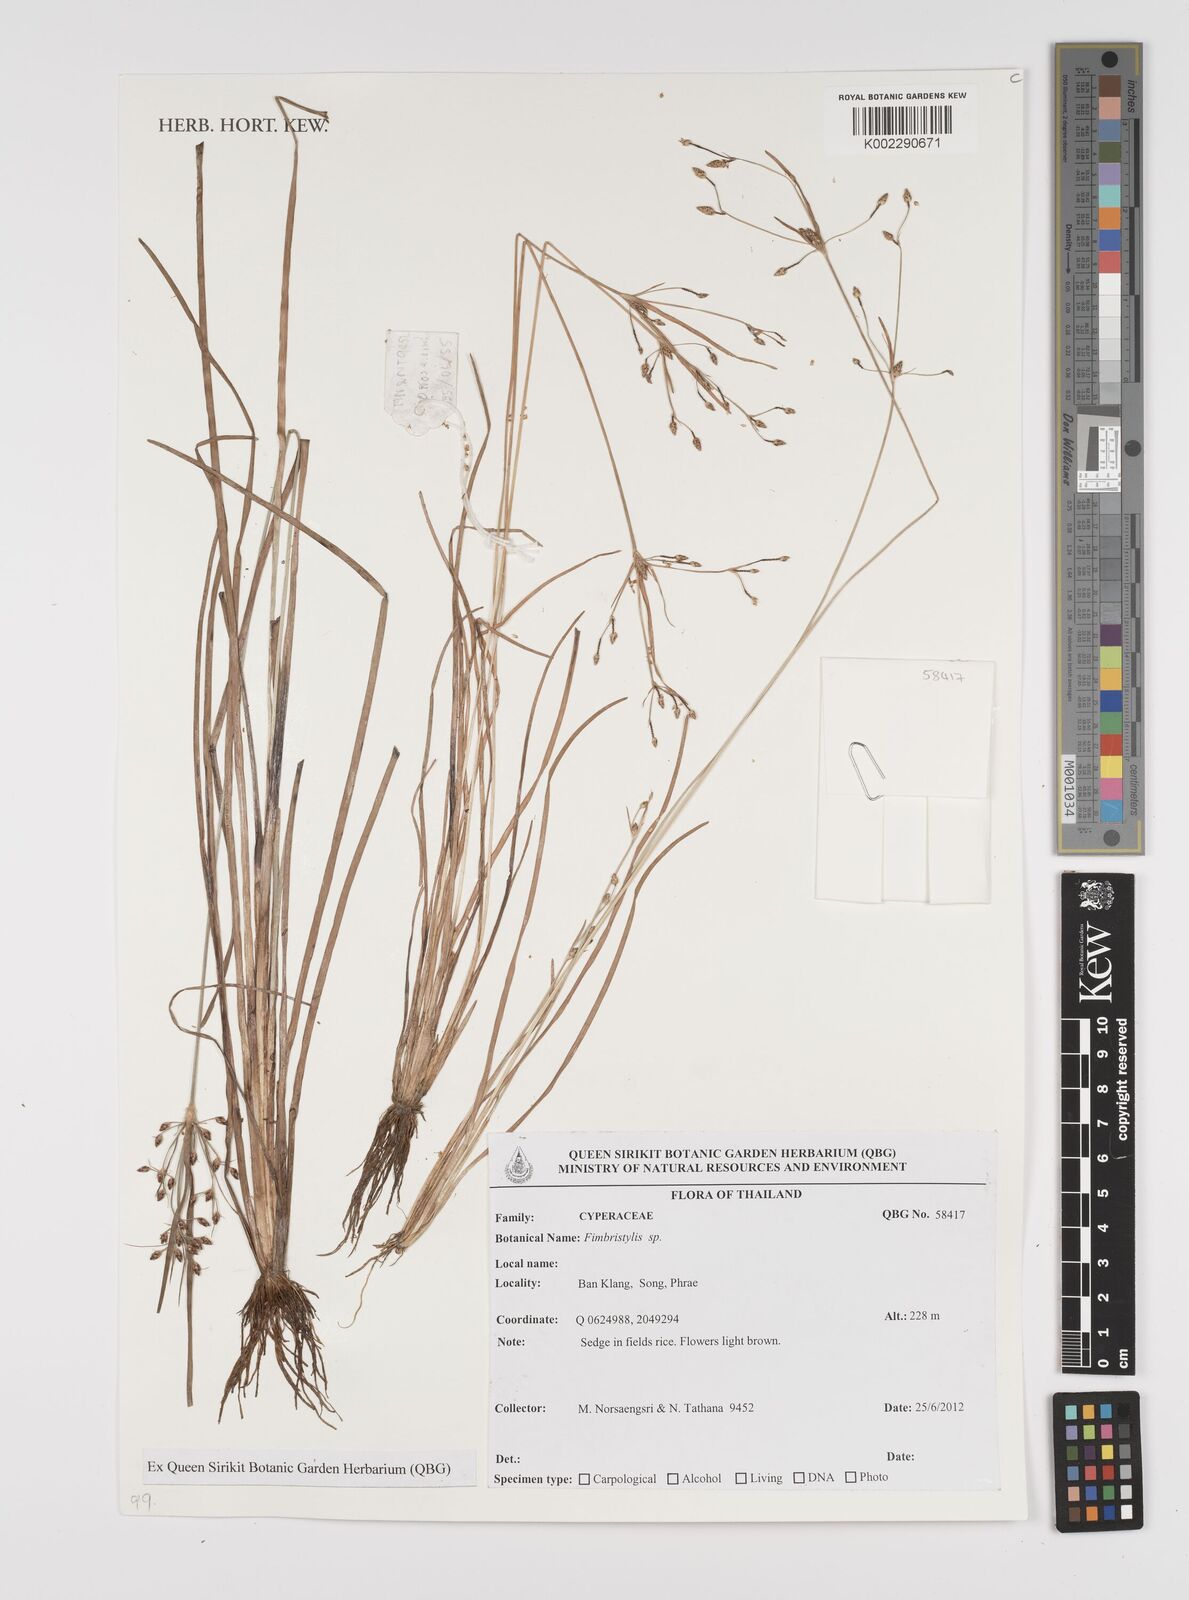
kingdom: Plantae
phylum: Tracheophyta
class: Liliopsida
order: Poales
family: Cyperaceae
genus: Fimbristylis
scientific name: Fimbristylis
